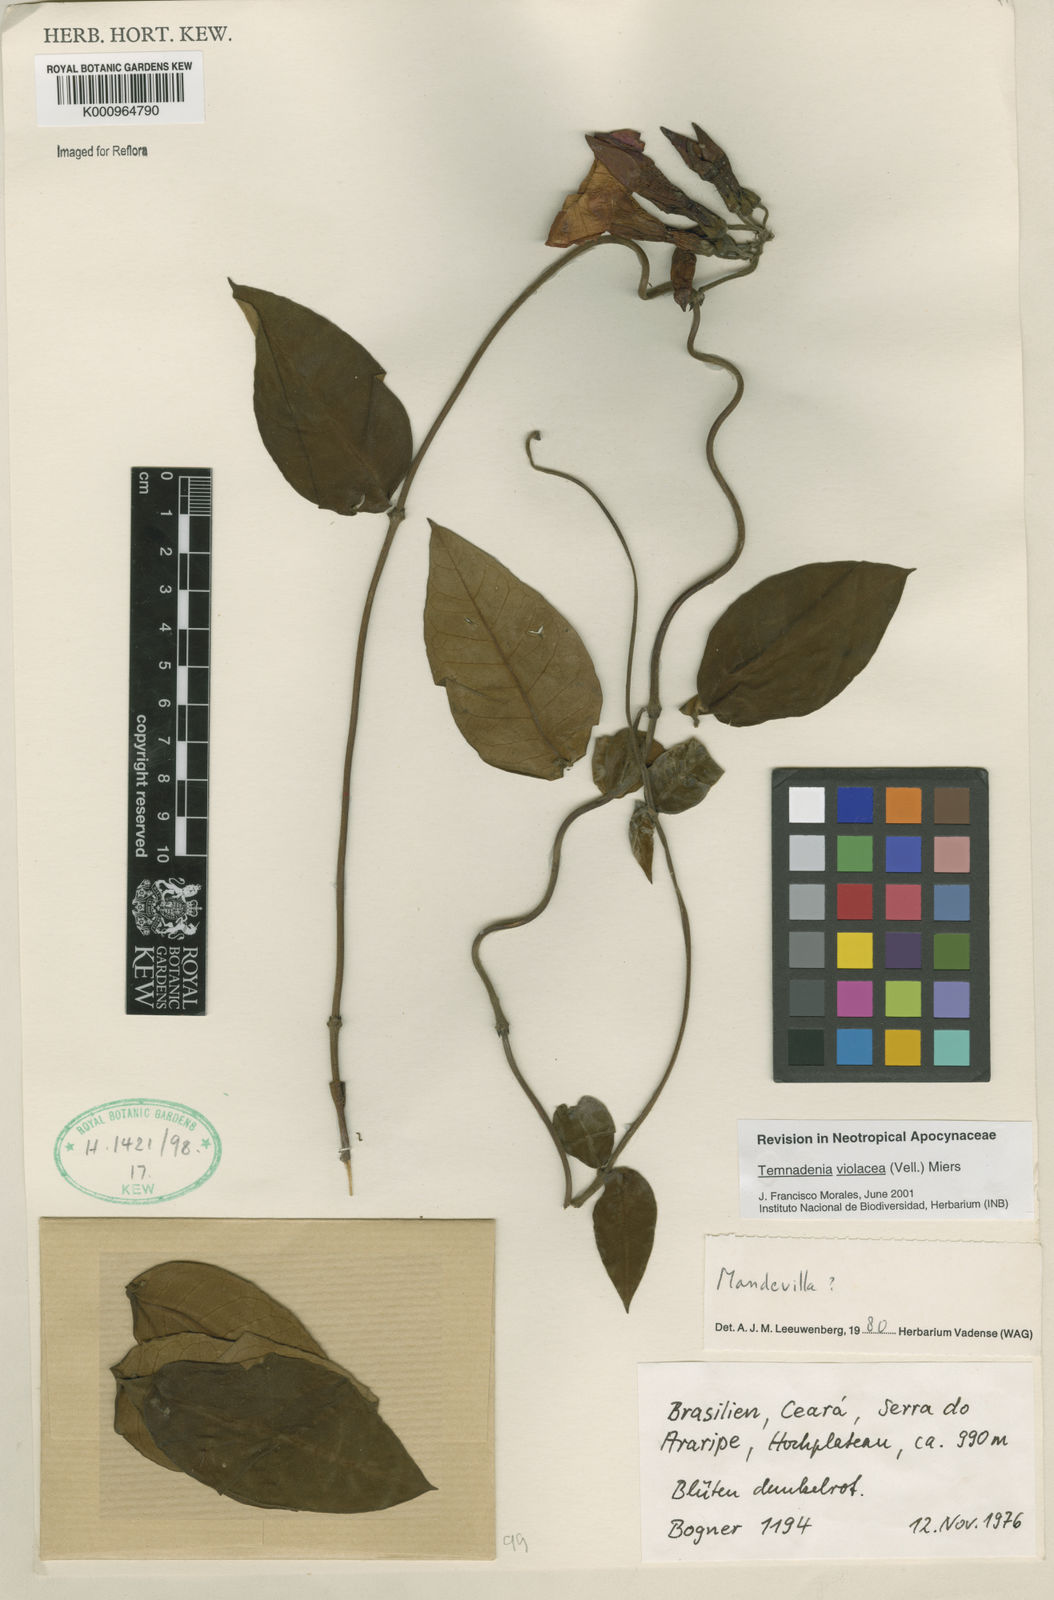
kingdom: Plantae
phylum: Tracheophyta
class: Magnoliopsida
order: Gentianales
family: Apocynaceae
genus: Temnadenia
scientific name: Temnadenia violacea
